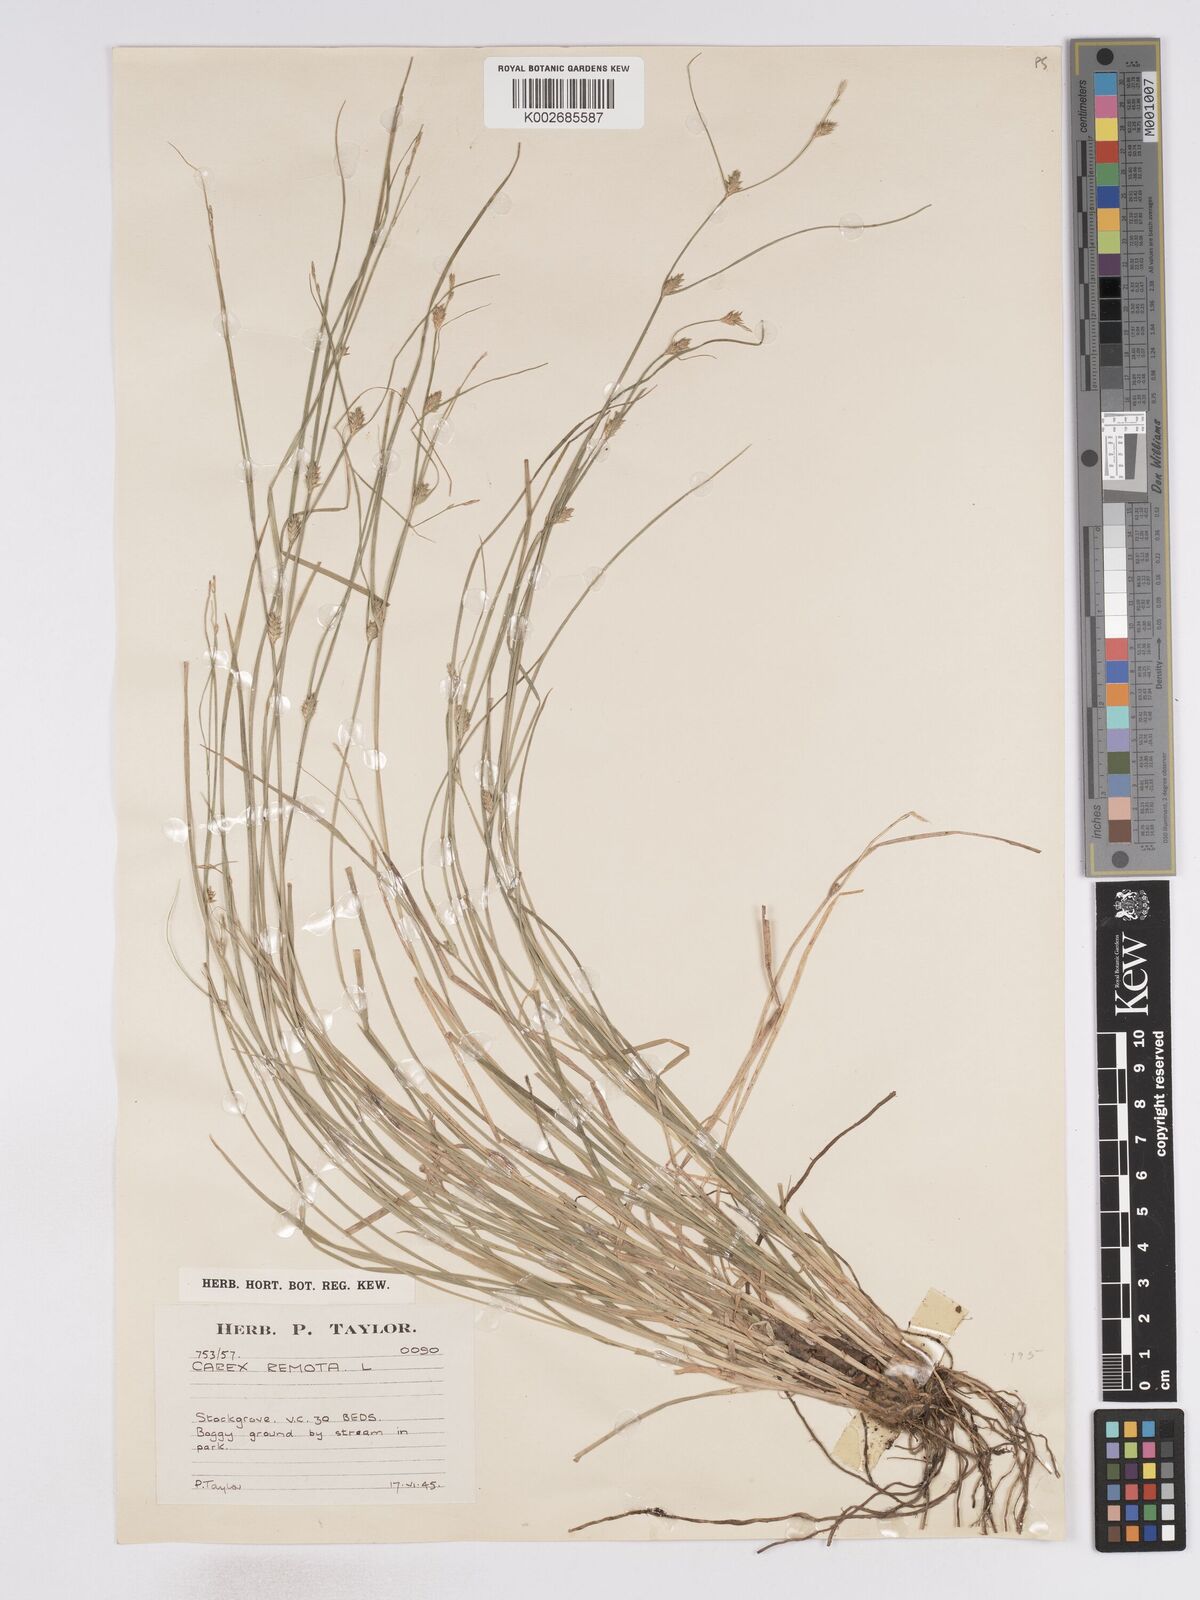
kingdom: Plantae
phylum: Tracheophyta
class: Liliopsida
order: Poales
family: Cyperaceae
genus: Carex
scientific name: Carex remota
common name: Remote sedge
